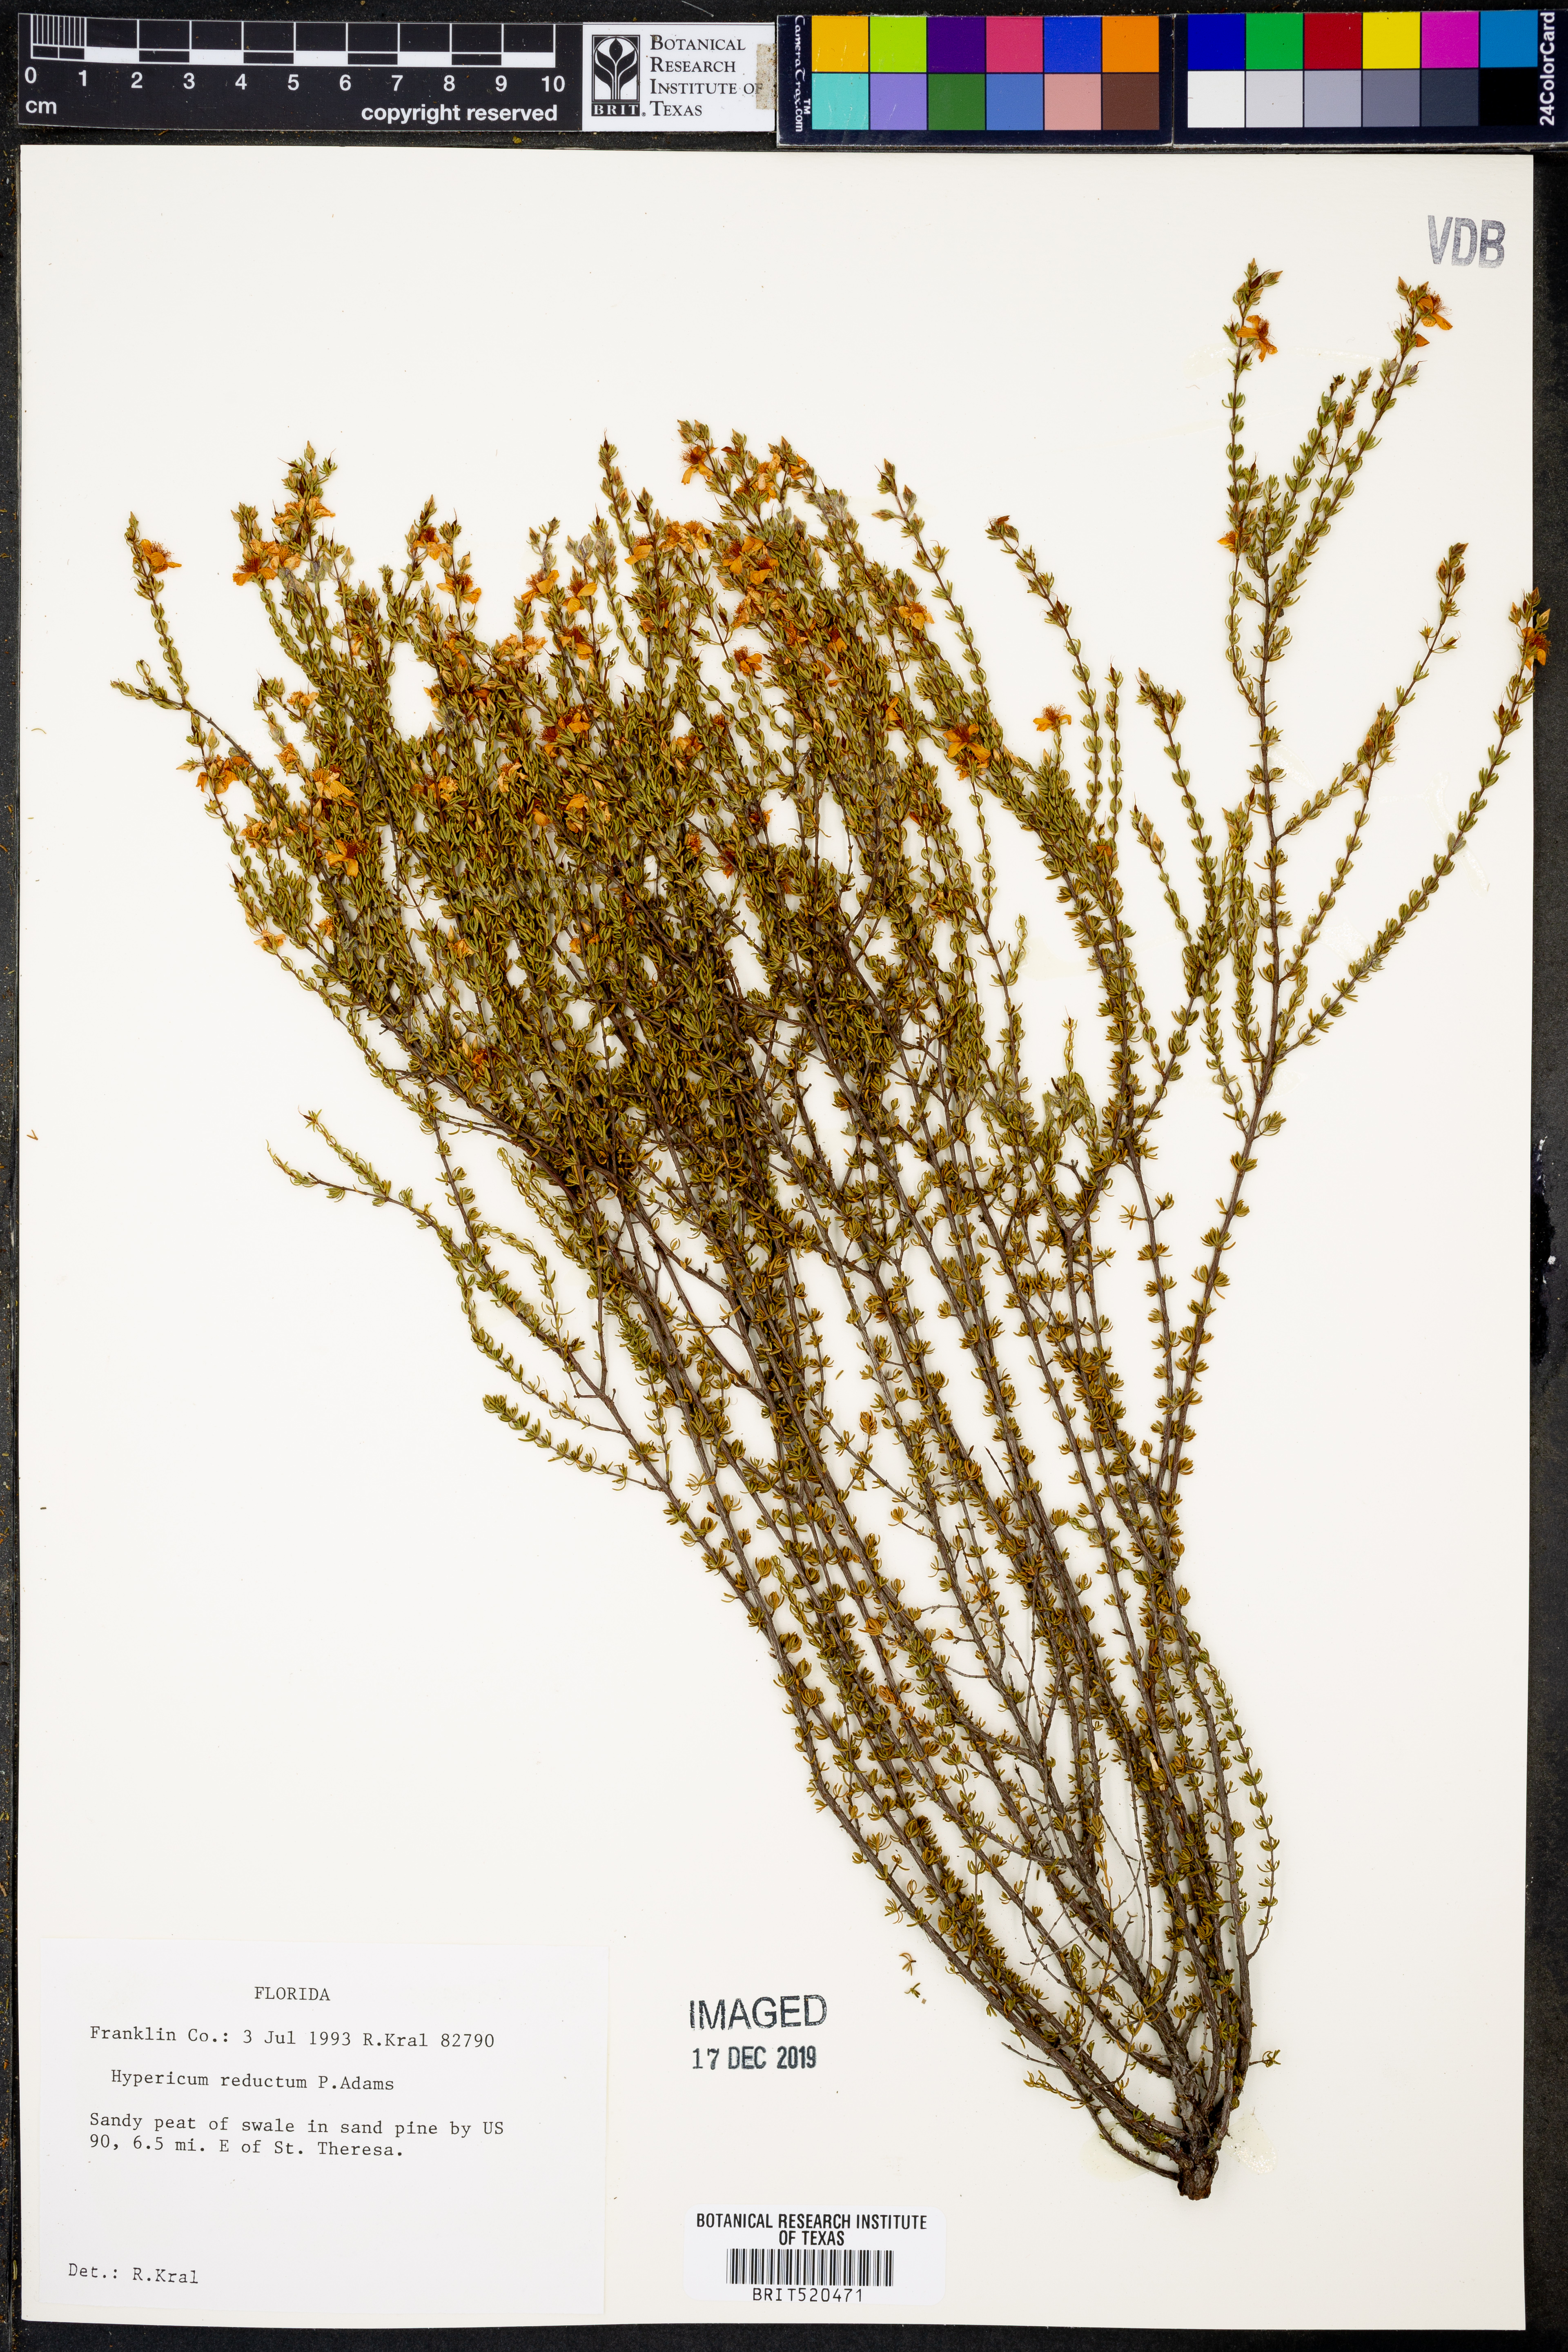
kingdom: Plantae
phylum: Tracheophyta
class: Magnoliopsida
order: Malpighiales
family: Hypericaceae
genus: Hypericum
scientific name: Hypericum tenuifolium
